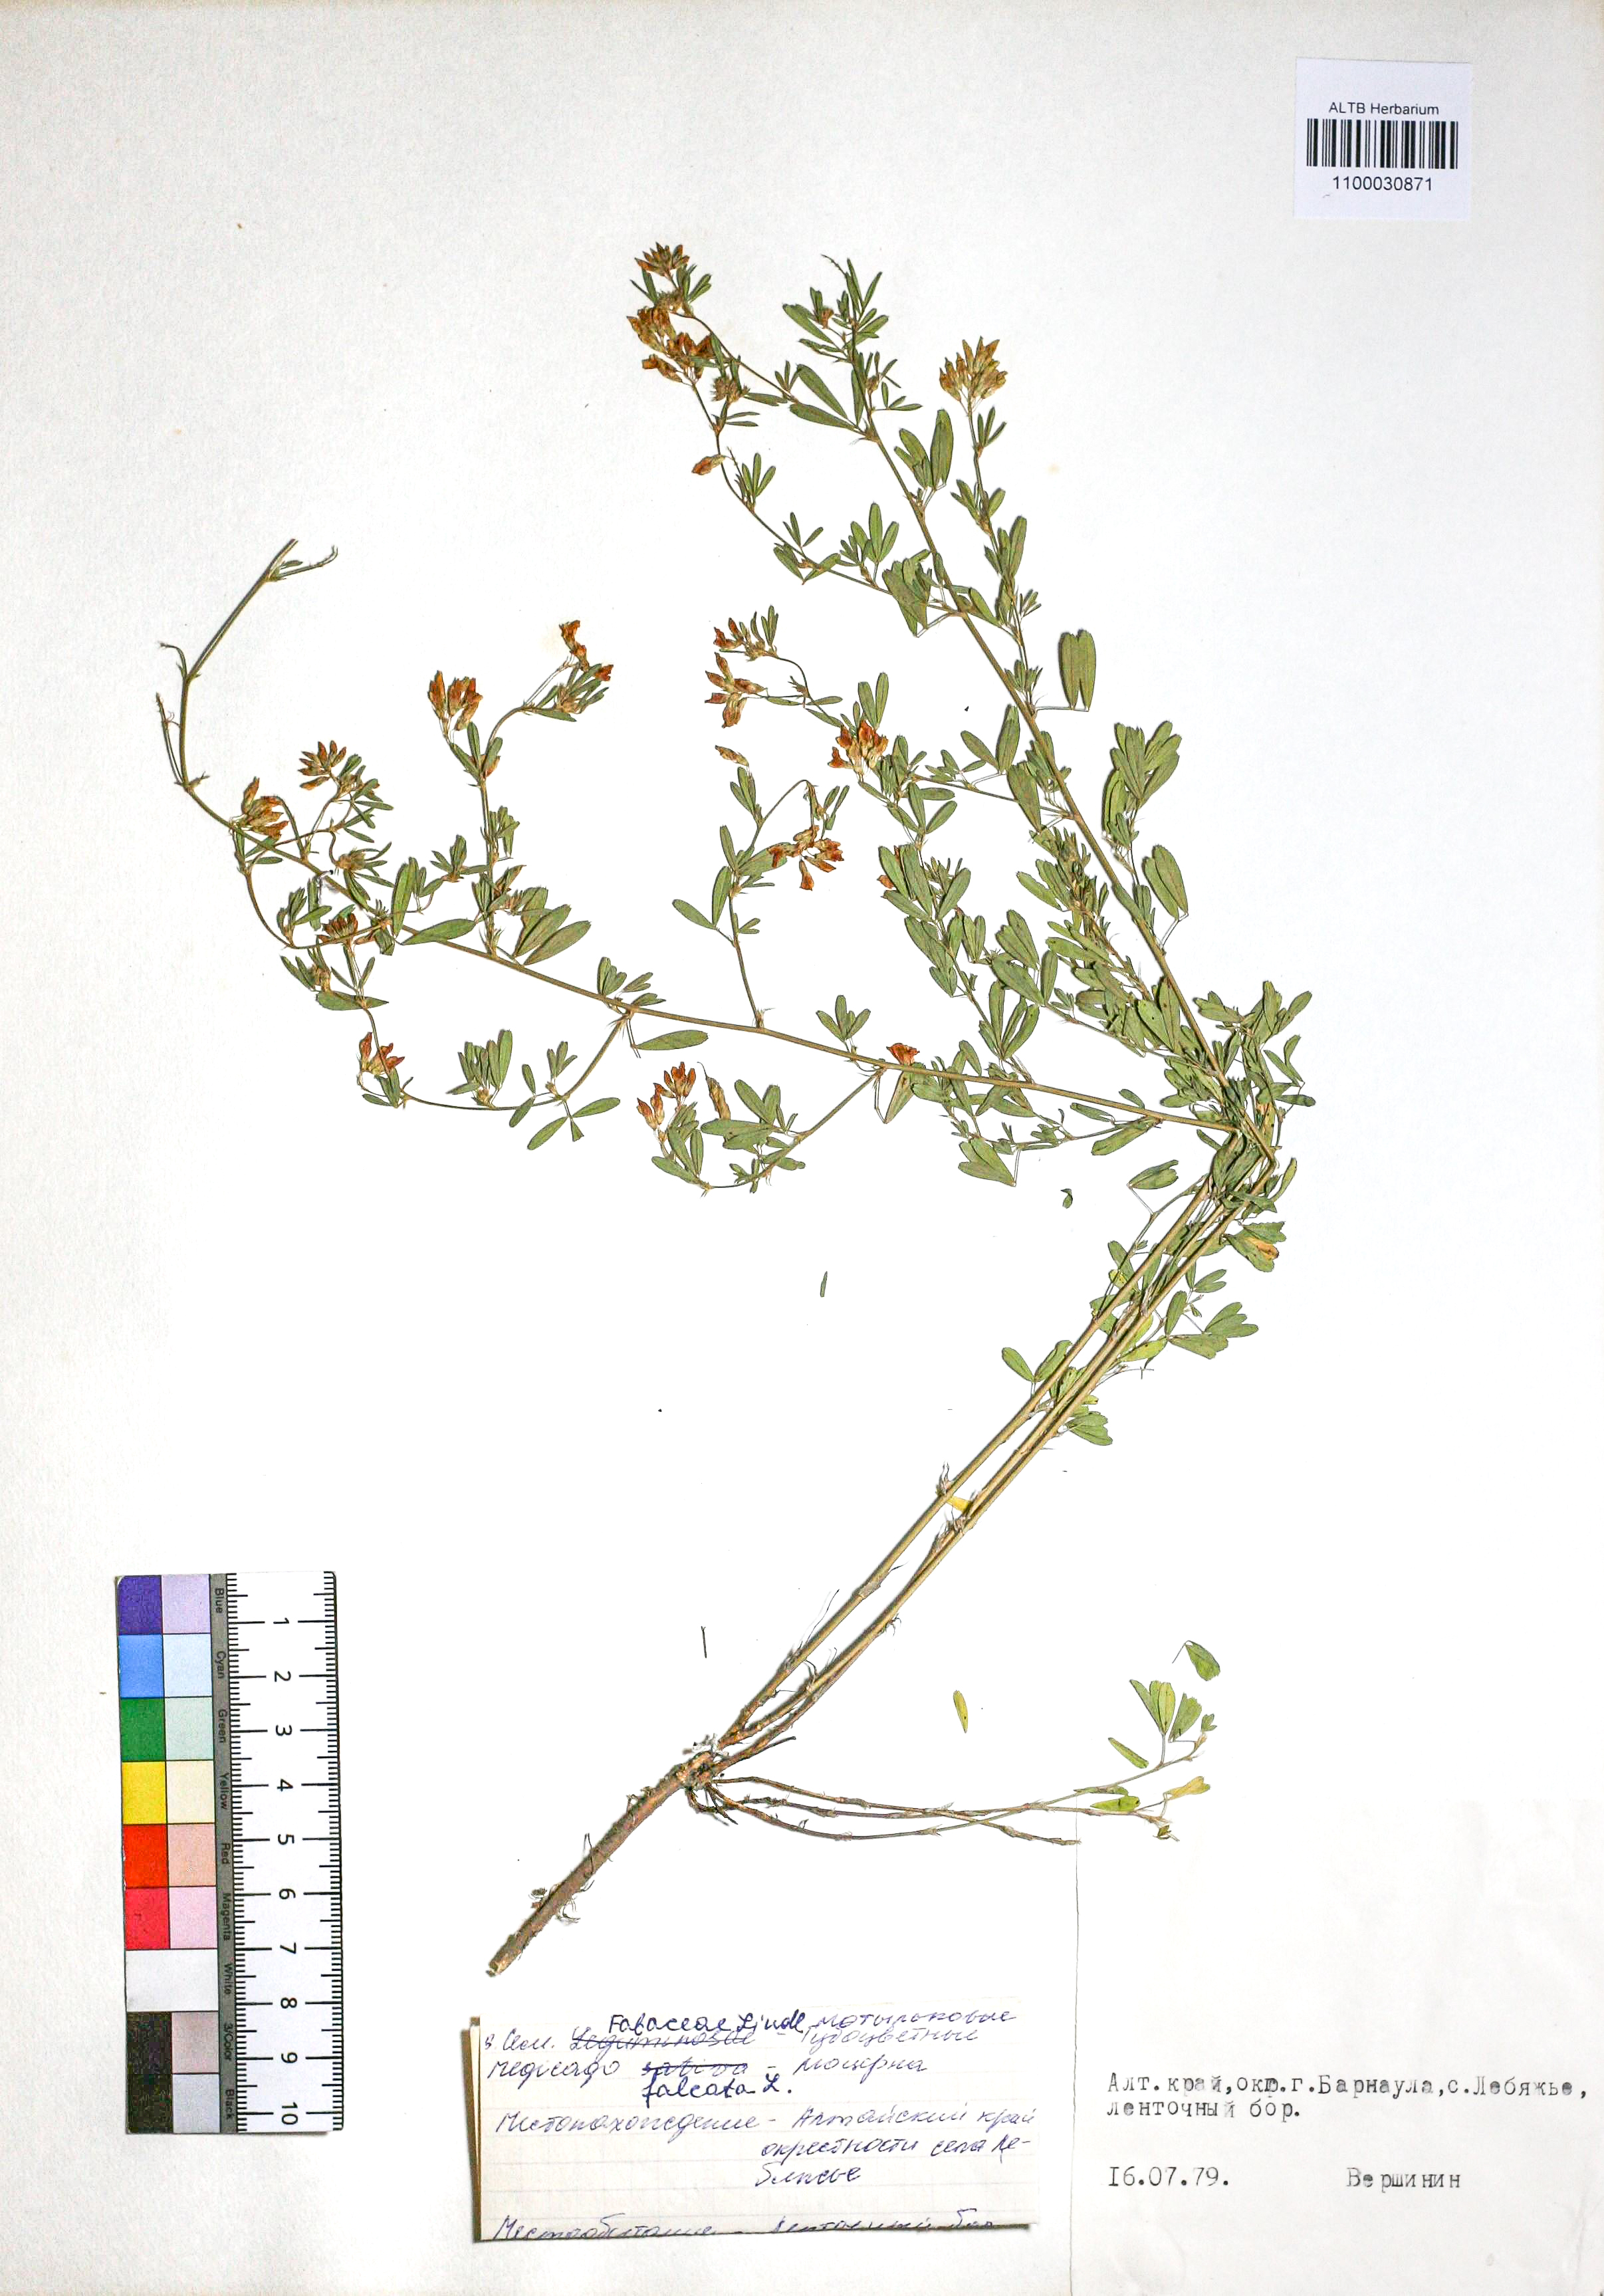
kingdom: Plantae
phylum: Tracheophyta
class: Magnoliopsida
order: Fabales
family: Fabaceae
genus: Medicago
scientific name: Medicago falcata
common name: Sickle medick
